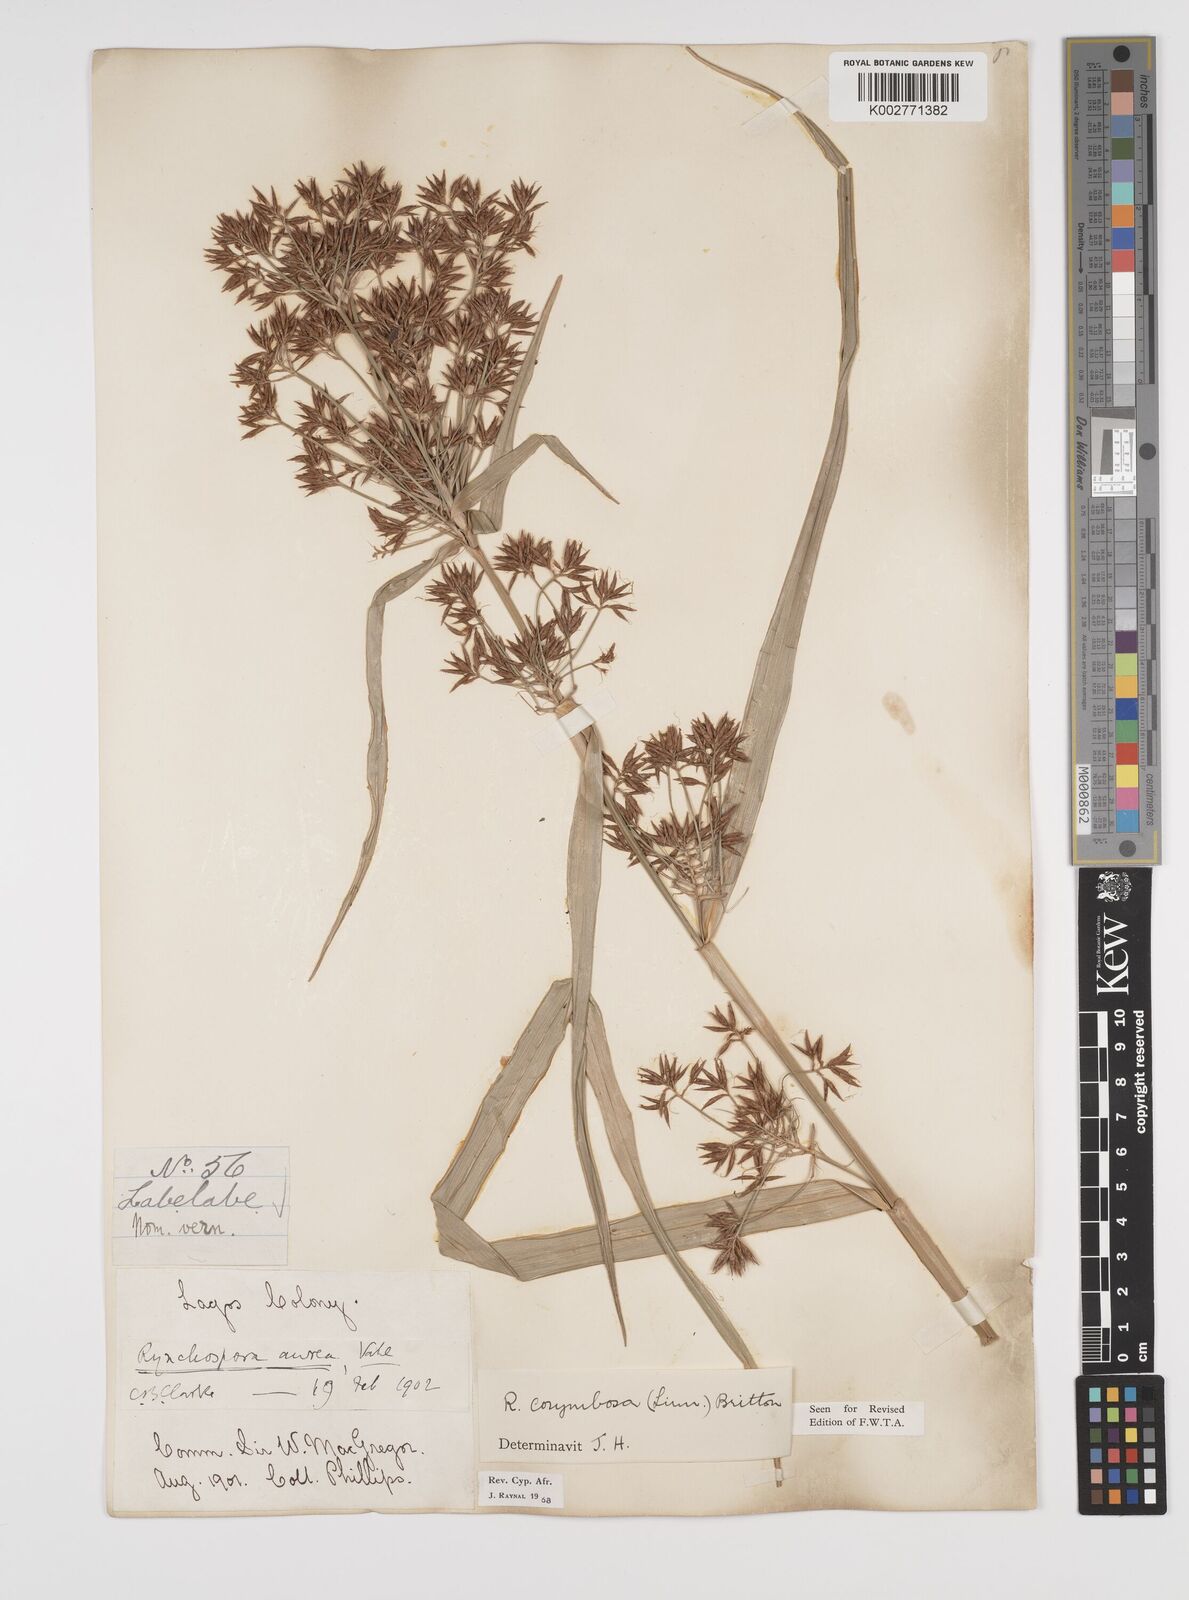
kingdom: Plantae
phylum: Tracheophyta
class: Liliopsida
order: Poales
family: Cyperaceae
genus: Rhynchospora
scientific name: Rhynchospora corymbosa
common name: Golden beak sedge
